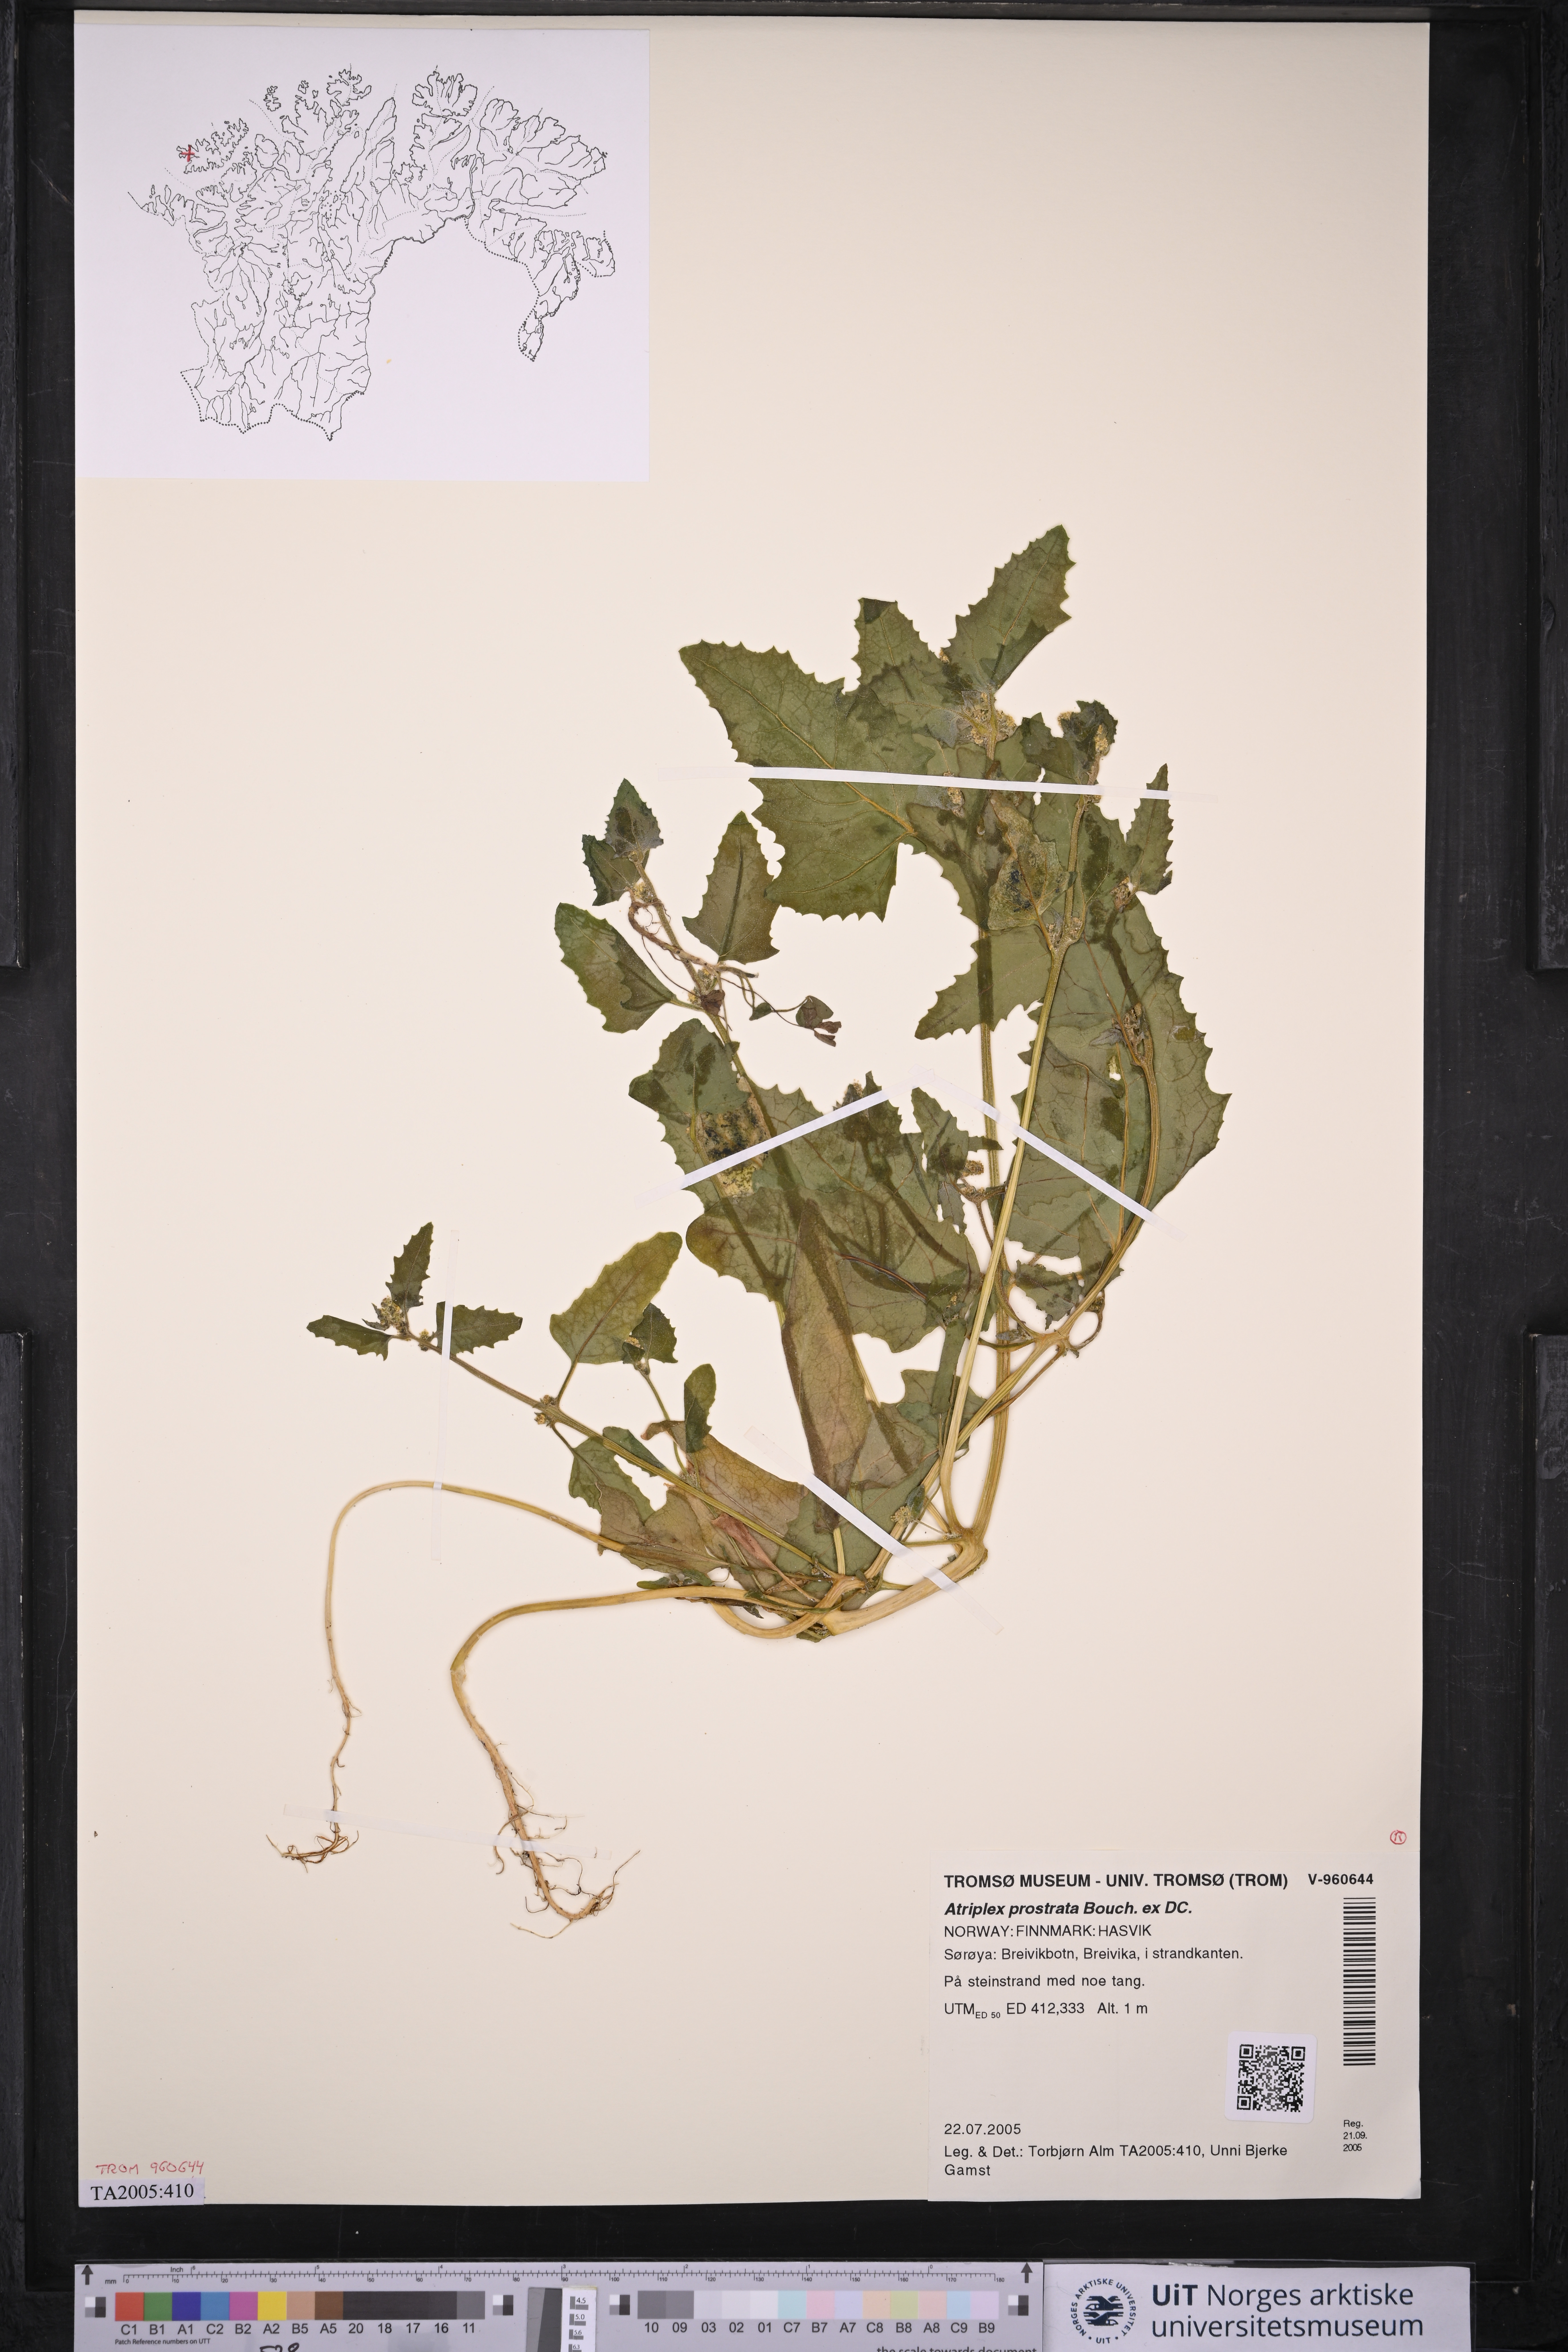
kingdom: Plantae
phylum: Tracheophyta
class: Magnoliopsida
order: Caryophyllales
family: Amaranthaceae
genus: Atriplex
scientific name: Atriplex prostrata
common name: Spear-leaved orache
